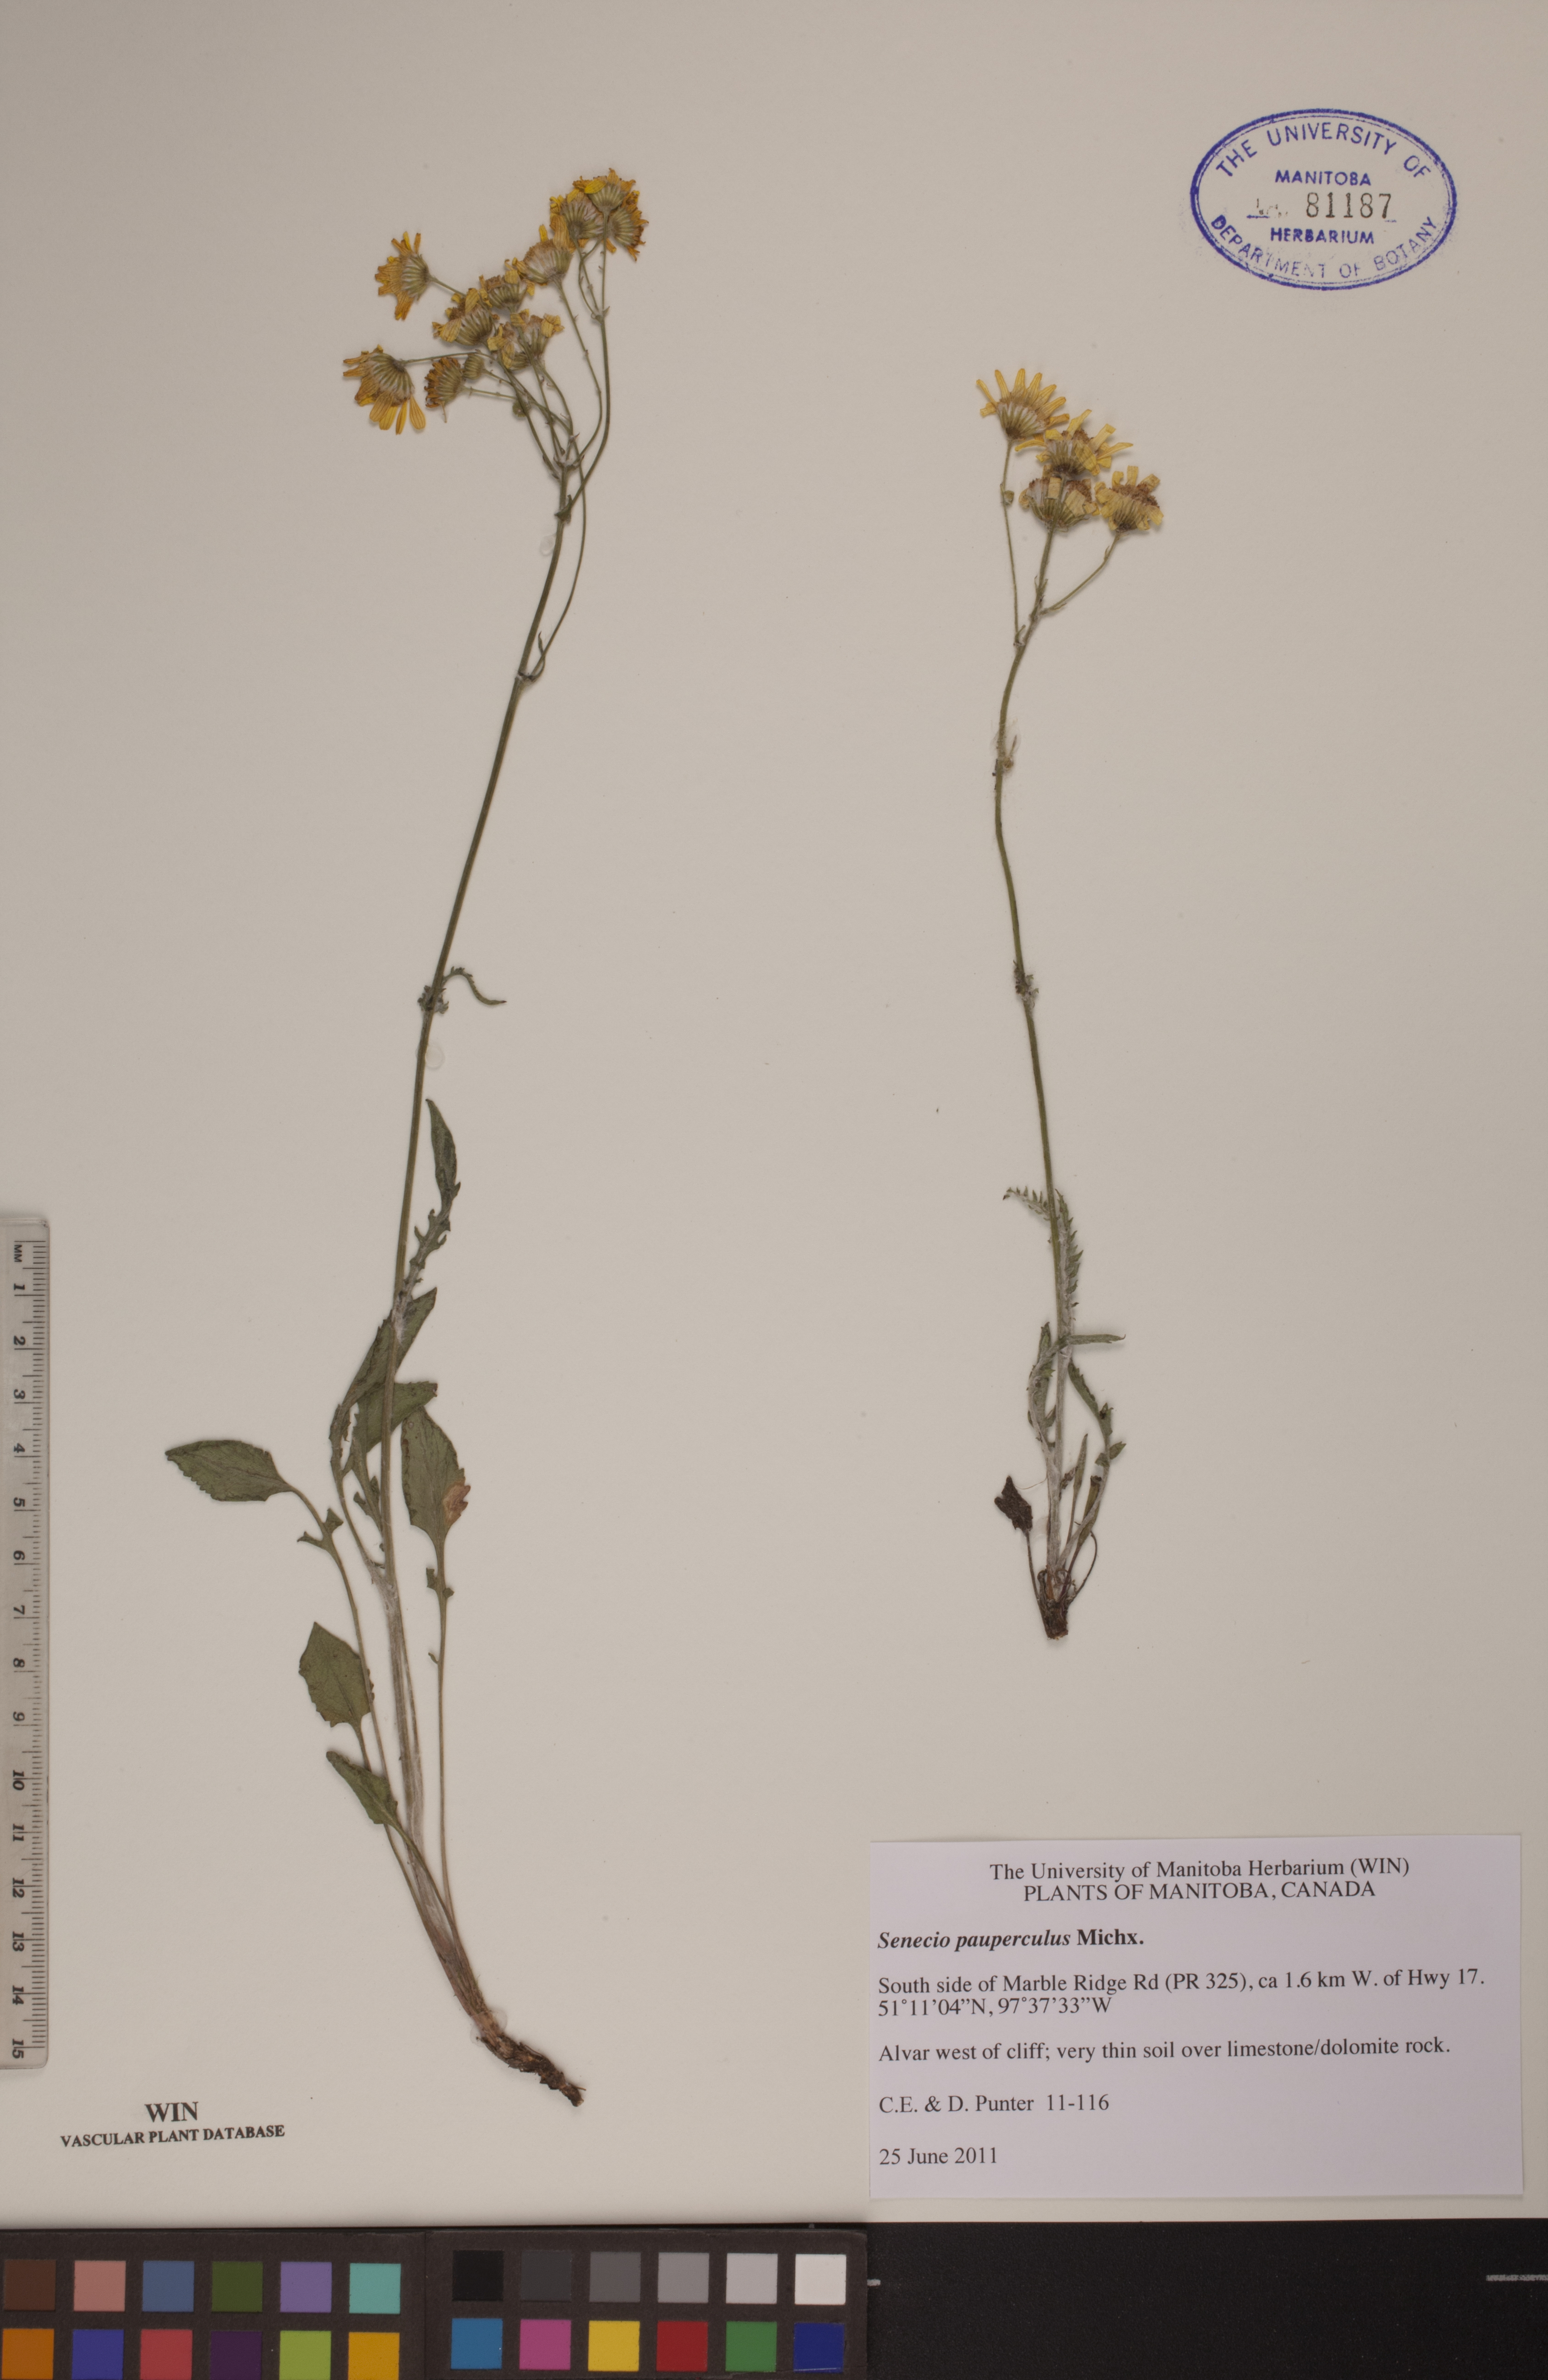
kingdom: Plantae
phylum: Tracheophyta
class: Magnoliopsida
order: Asterales
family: Asteraceae
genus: Packera
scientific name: Packera paupercula
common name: Balsam groundsel
